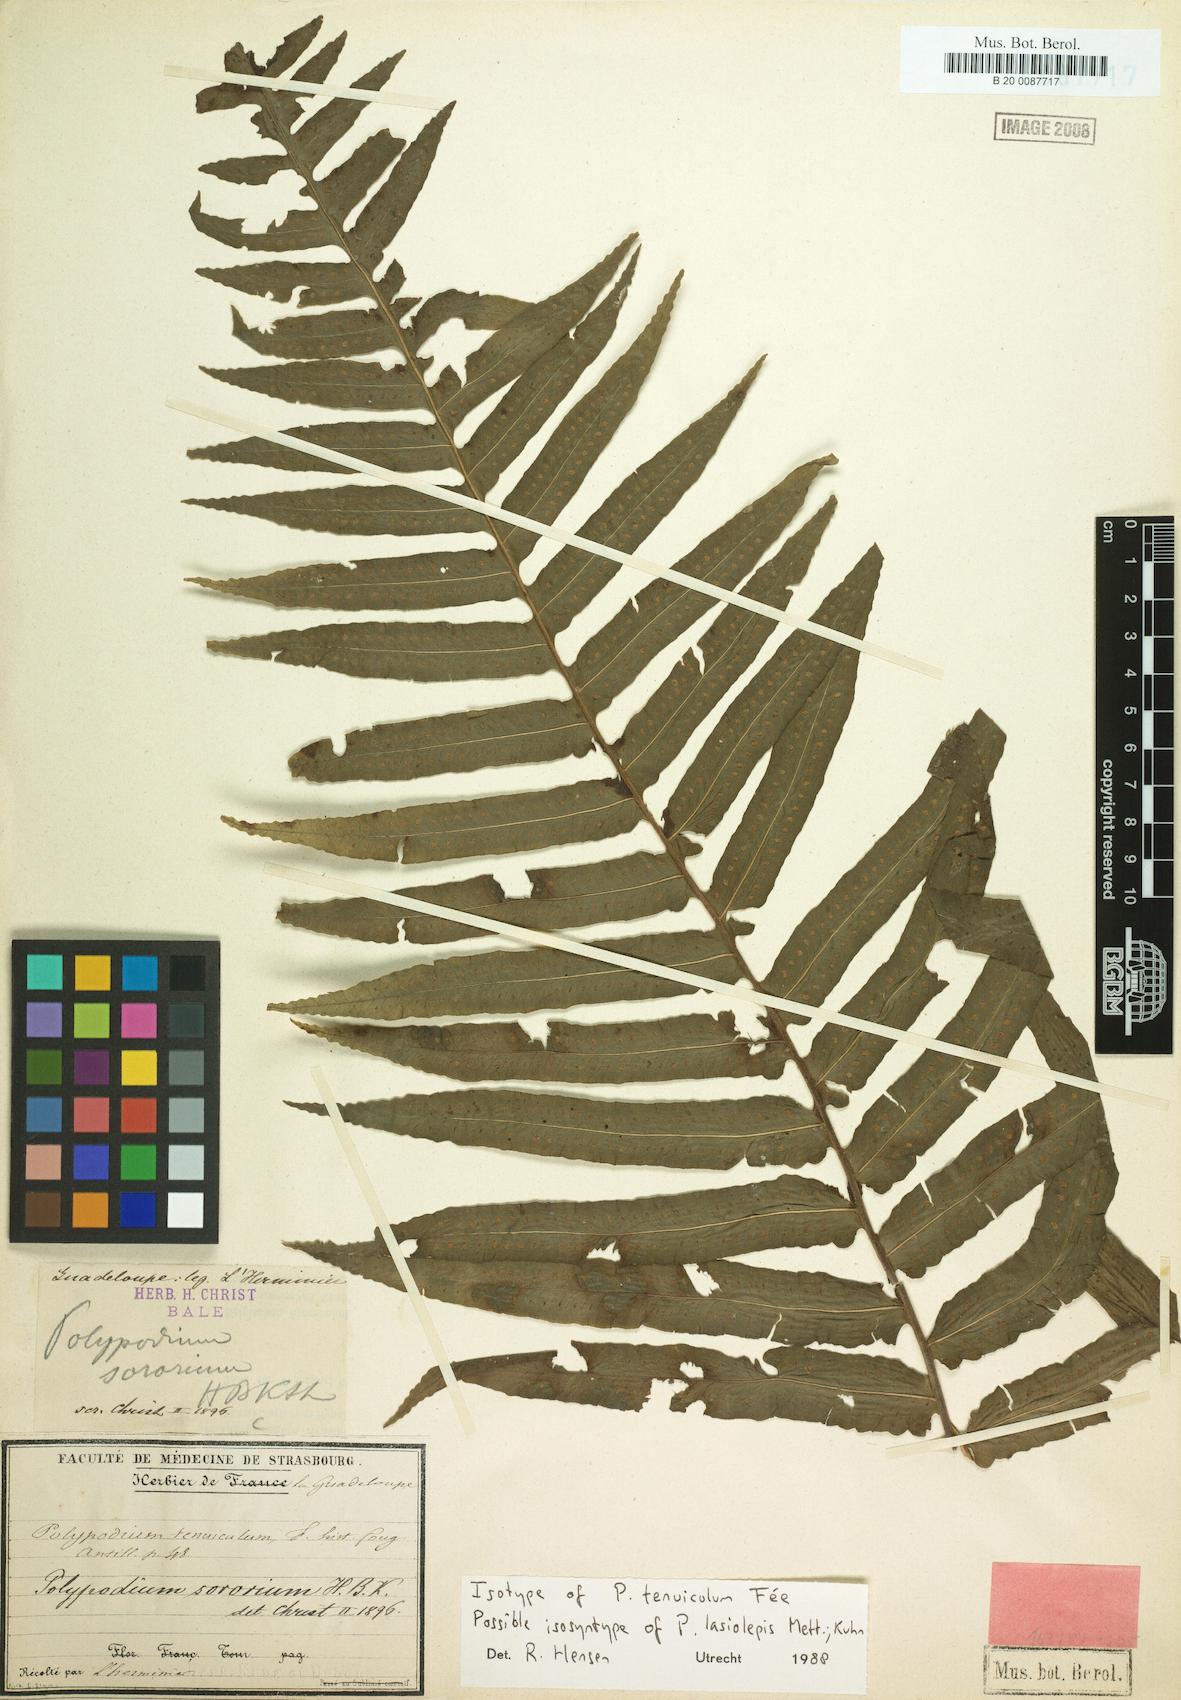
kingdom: Plantae
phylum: Tracheophyta
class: Polypodiopsida
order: Polypodiales
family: Polypodiaceae
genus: Pecluma
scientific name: Pecluma dulcis
